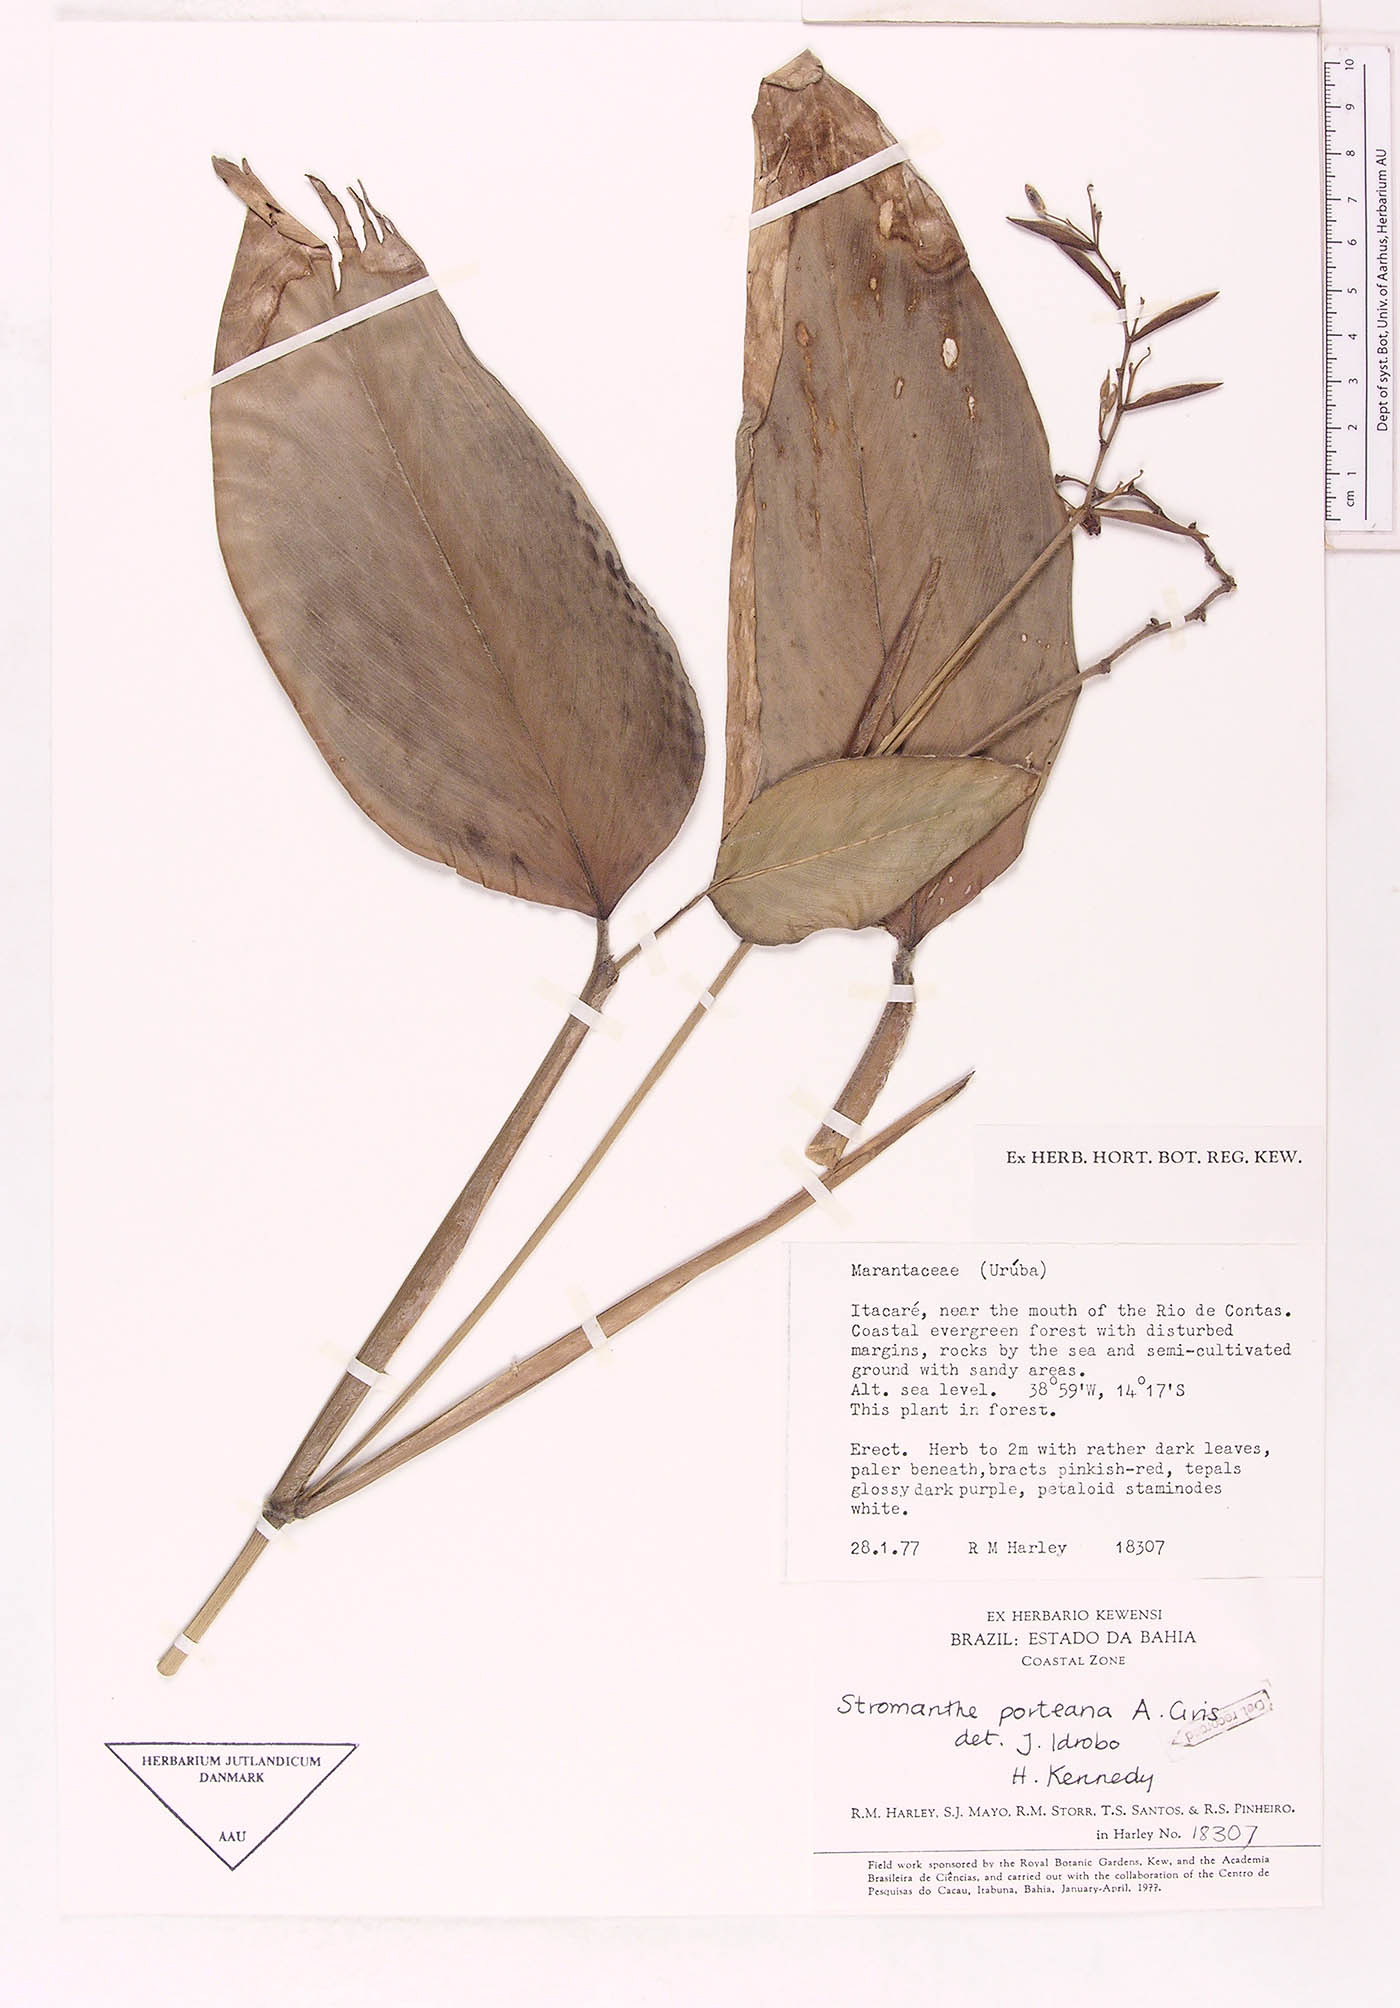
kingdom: Plantae
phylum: Tracheophyta
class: Liliopsida
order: Zingiberales
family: Marantaceae
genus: Stromanthe
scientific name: Stromanthe porteana
